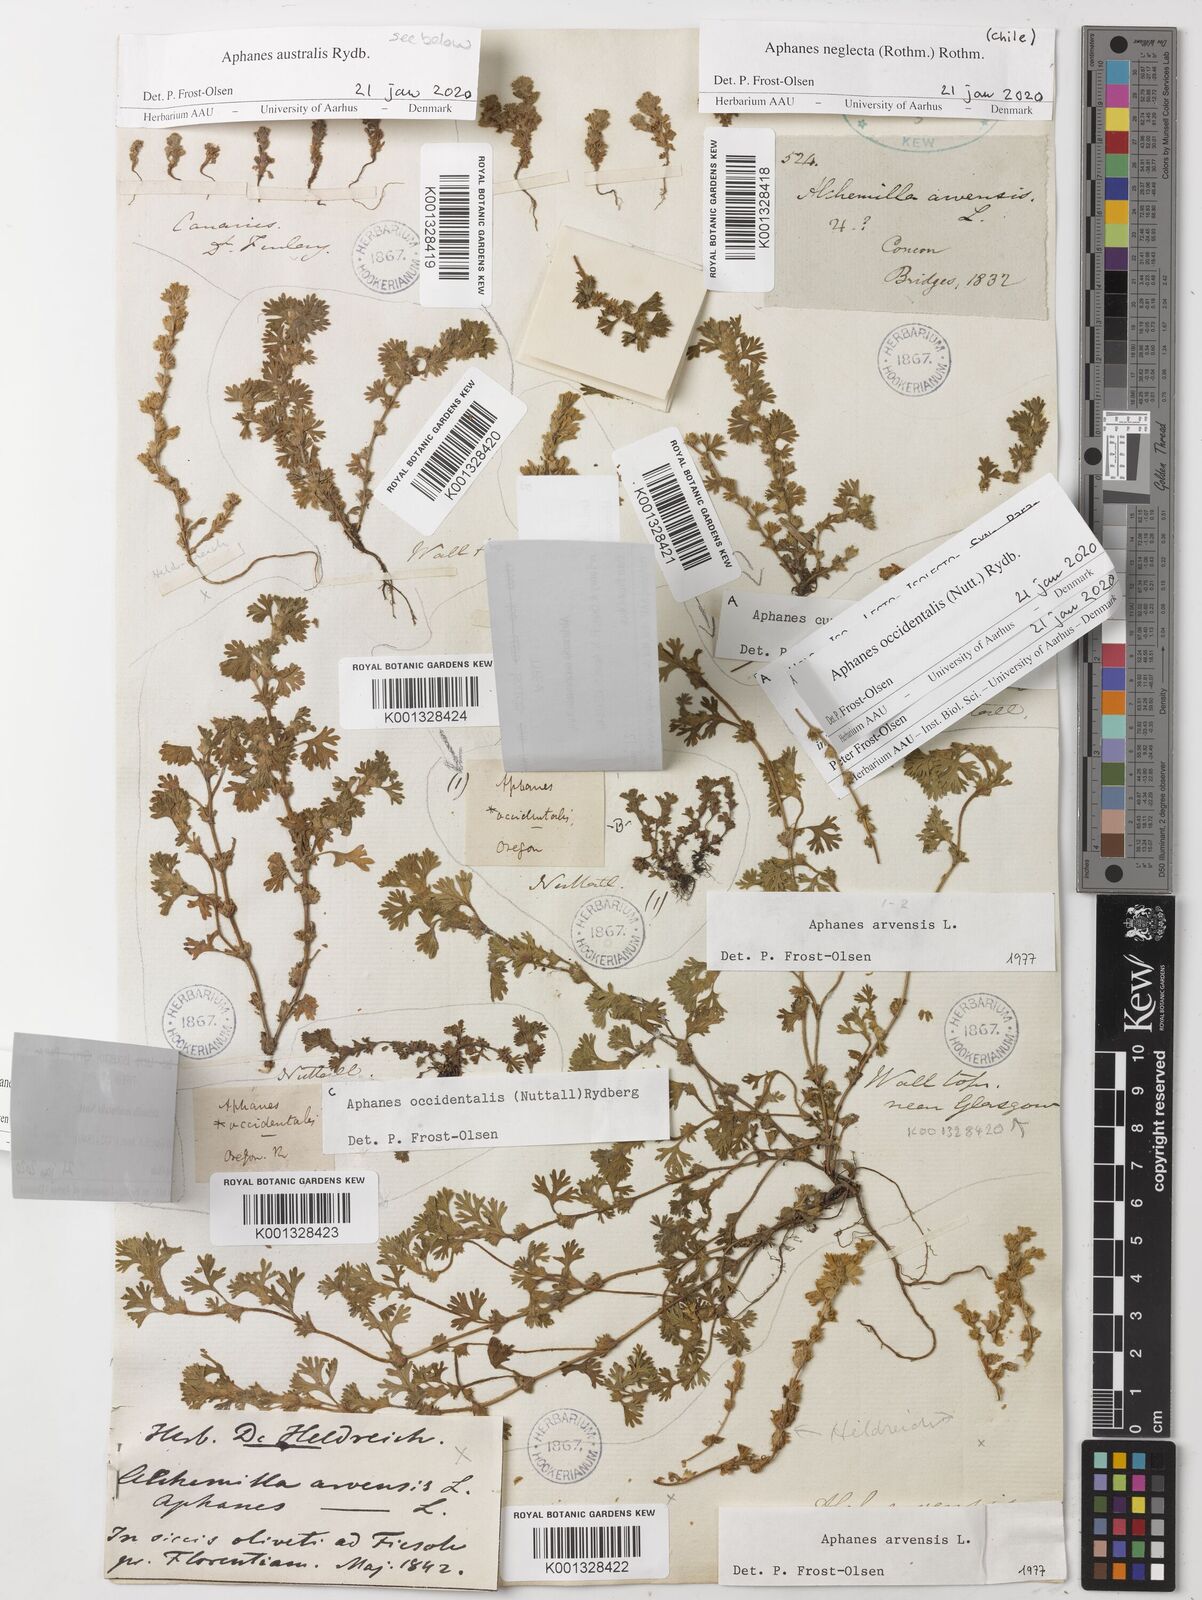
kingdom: Plantae
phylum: Tracheophyta
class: Magnoliopsida
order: Rosales
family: Rosaceae
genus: Aphanes
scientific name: Aphanes arvensis
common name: Parsley-piert
